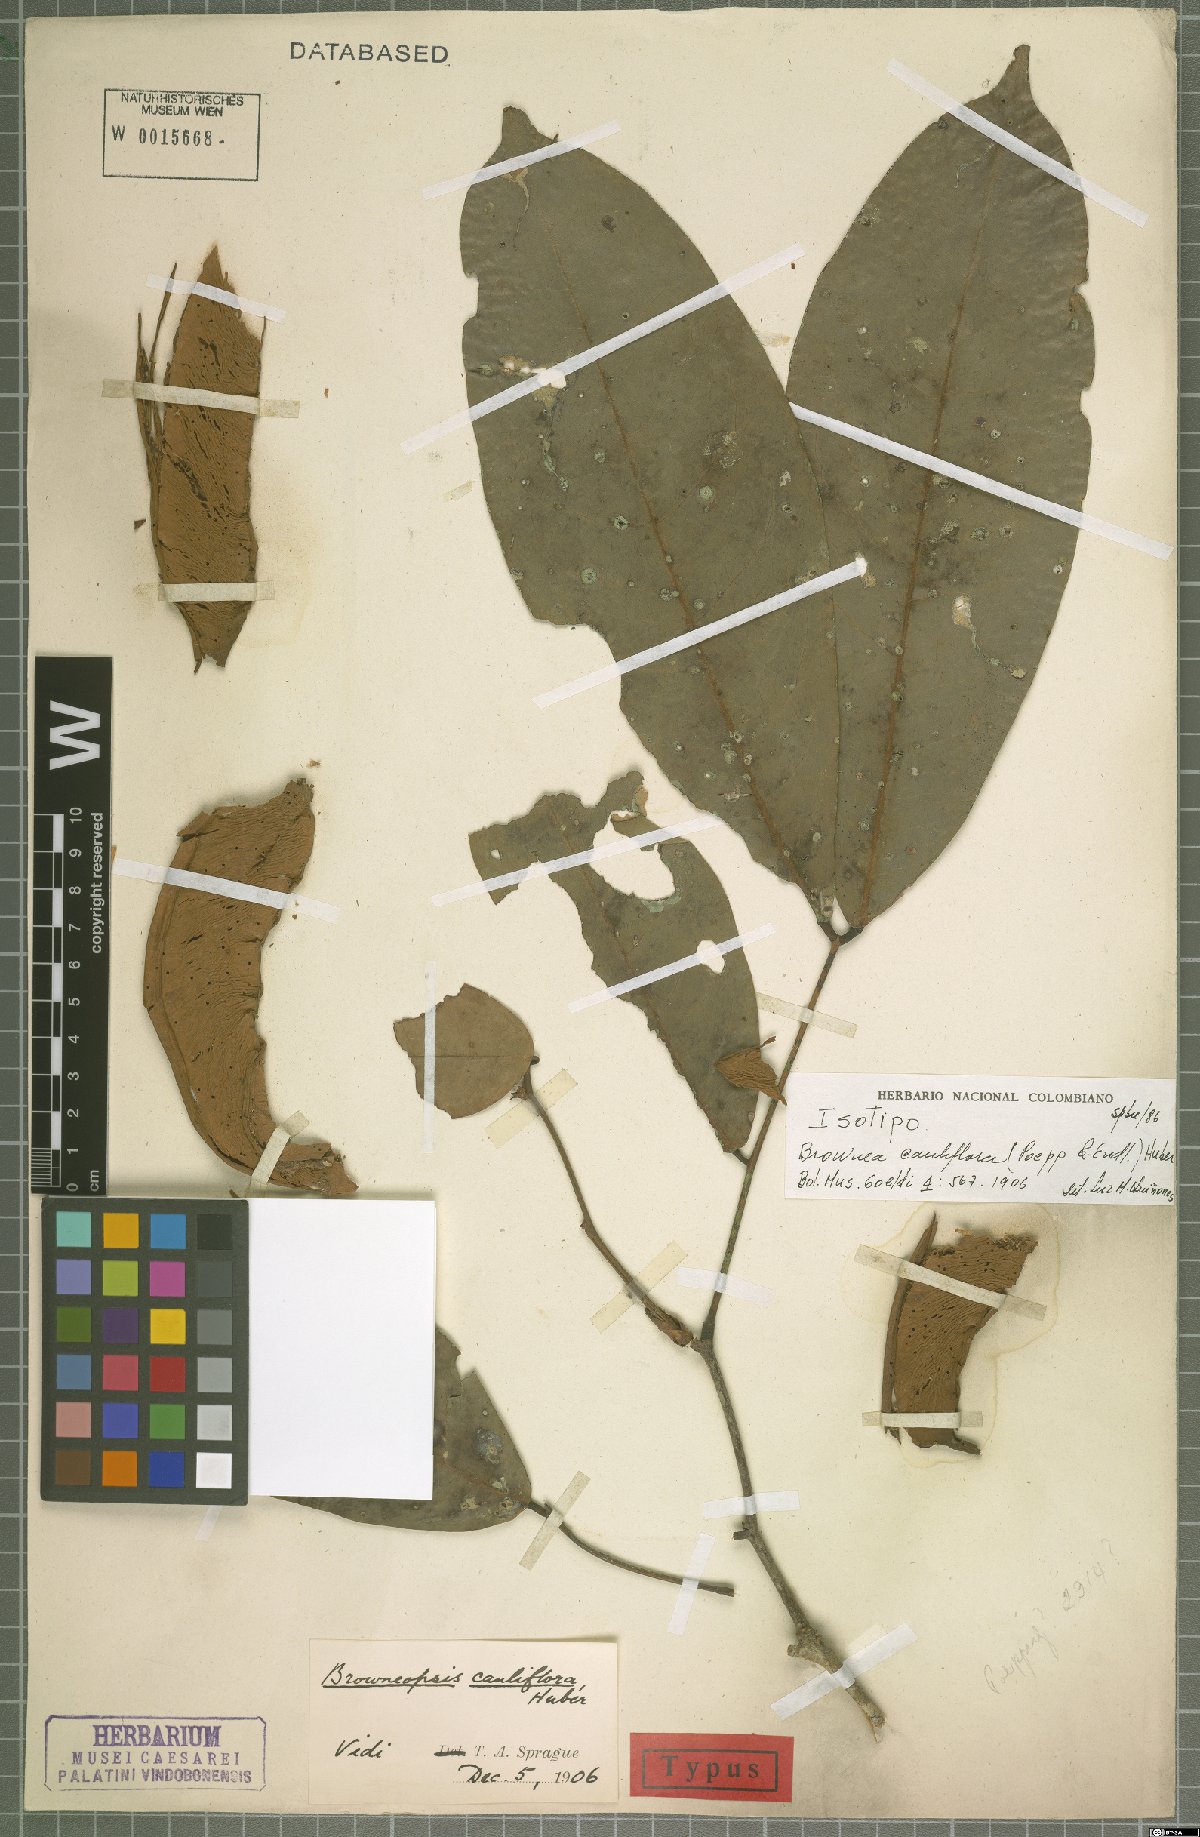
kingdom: Plantae
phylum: Tracheophyta
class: Magnoliopsida
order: Fabales
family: Fabaceae
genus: Browneopsis
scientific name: Browneopsis cauliflora
